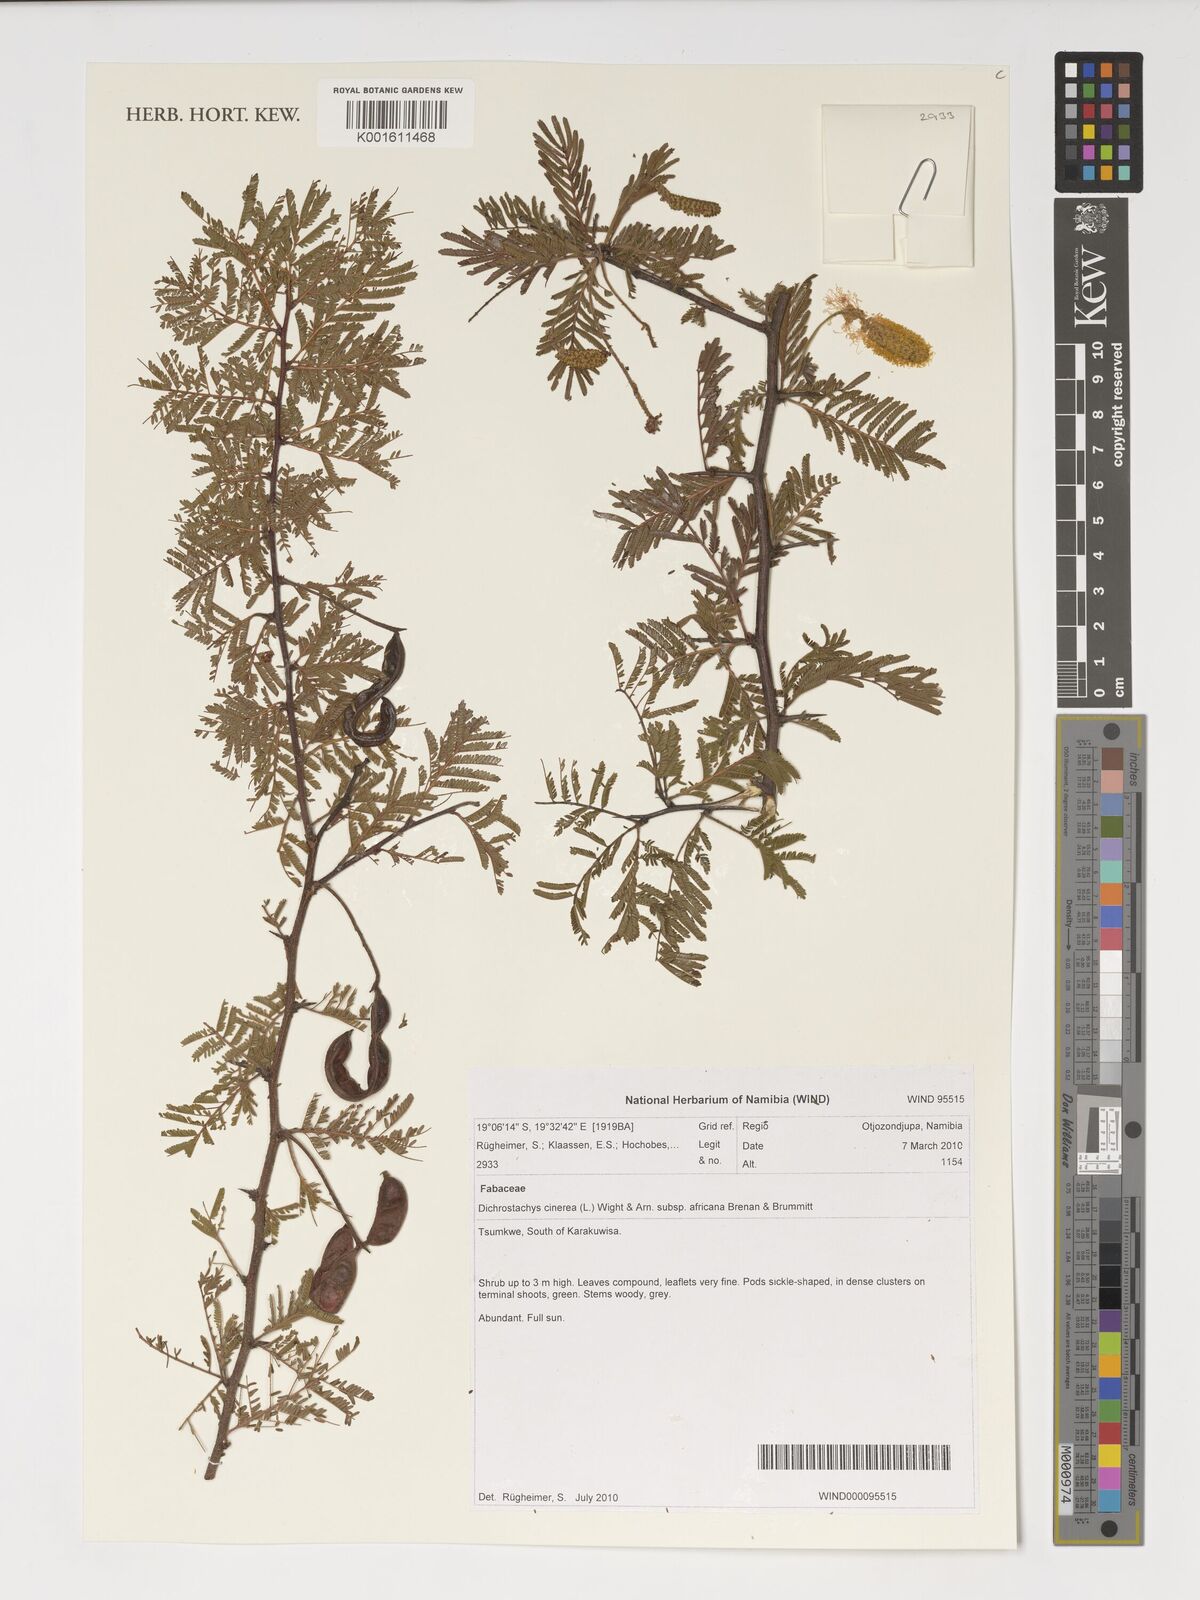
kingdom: Plantae
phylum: Tracheophyta
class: Magnoliopsida
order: Fabales
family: Fabaceae
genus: Dichrostachys
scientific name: Dichrostachys cinerea
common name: Sicklebush
